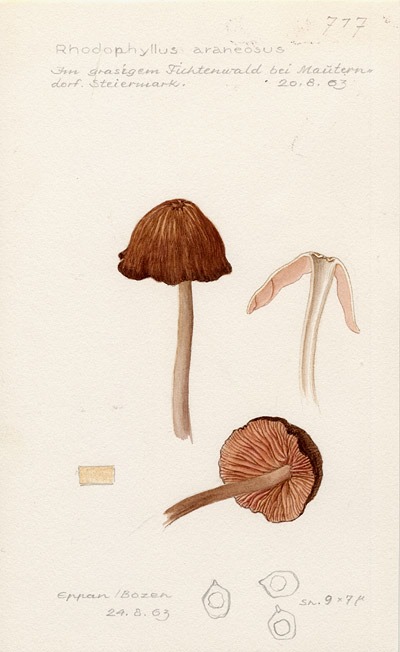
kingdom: Fungi
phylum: Basidiomycota
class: Agaricomycetes
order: Agaricales
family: Entolomataceae
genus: Entoloma
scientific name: Entoloma araneosum
